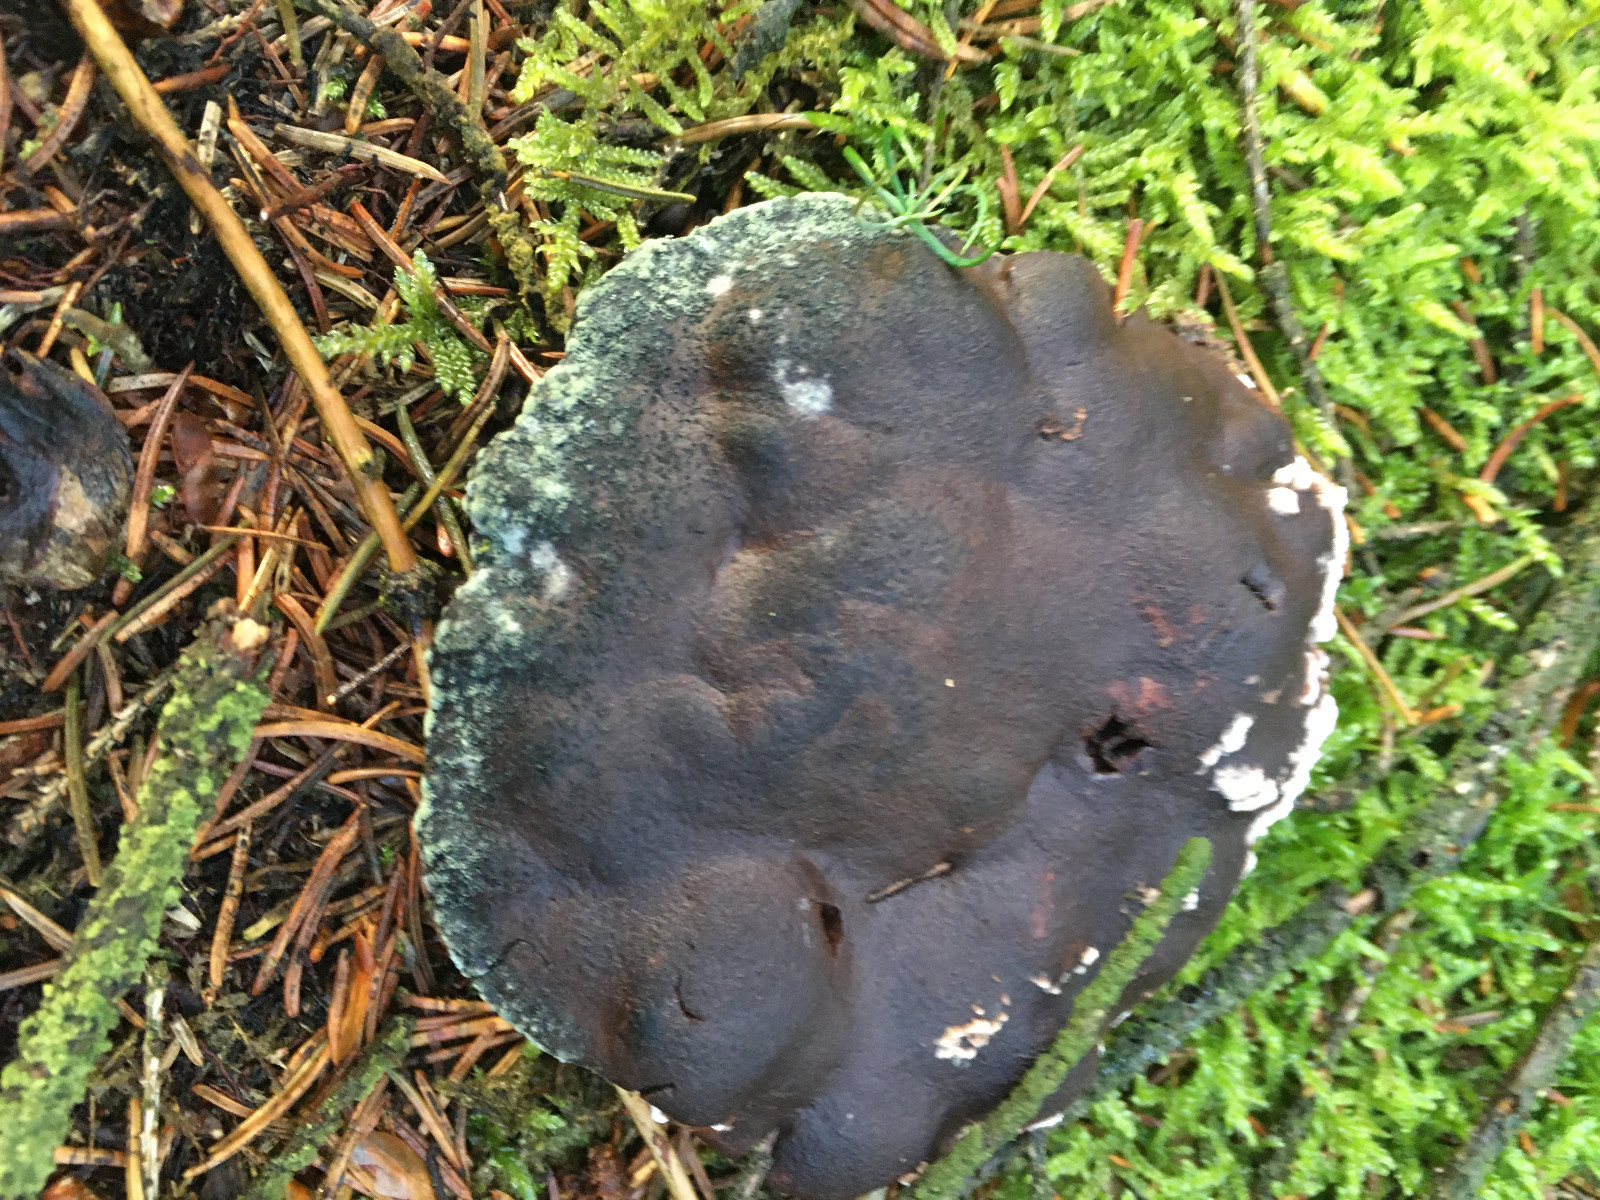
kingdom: Fungi
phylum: Basidiomycota
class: Agaricomycetes
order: Thelephorales
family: Bankeraceae
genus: Hydnellum
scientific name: Hydnellum ferrugineum
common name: rust-korkpigsvamp
